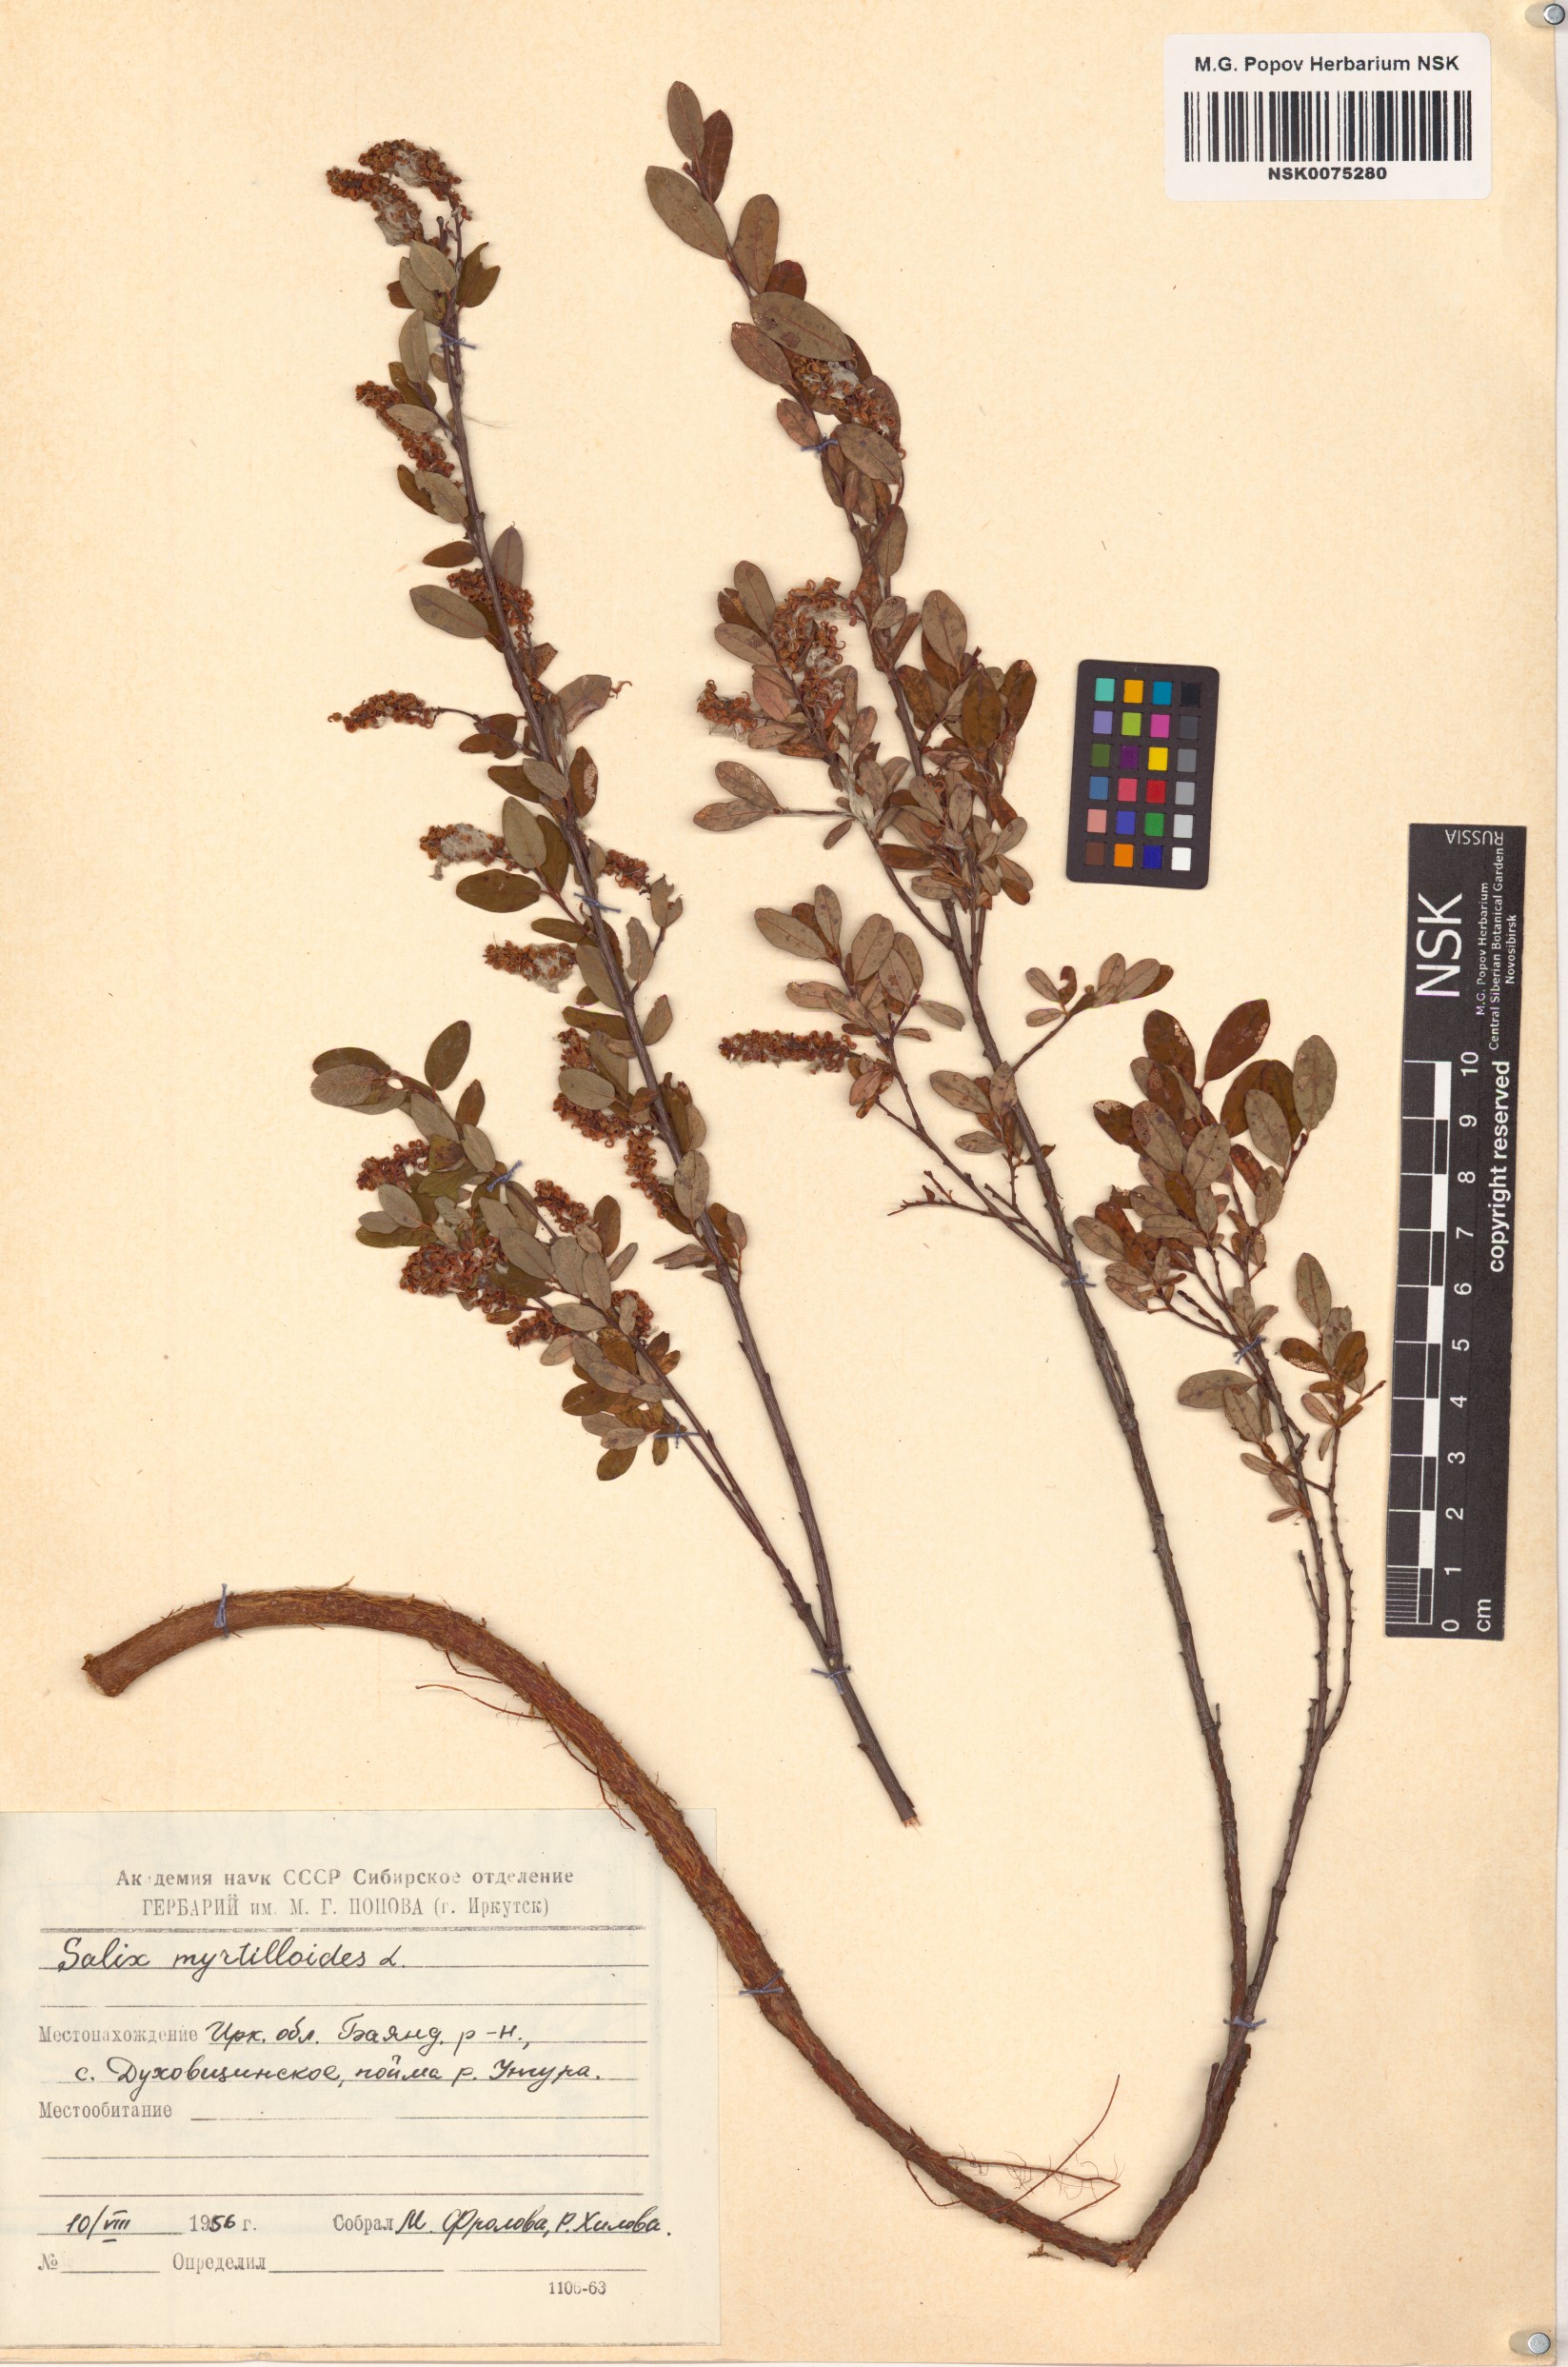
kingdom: Plantae
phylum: Tracheophyta
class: Magnoliopsida
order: Malpighiales
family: Salicaceae
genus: Salix
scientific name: Salix myrtilloides
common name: Myrtle-leaved willow
